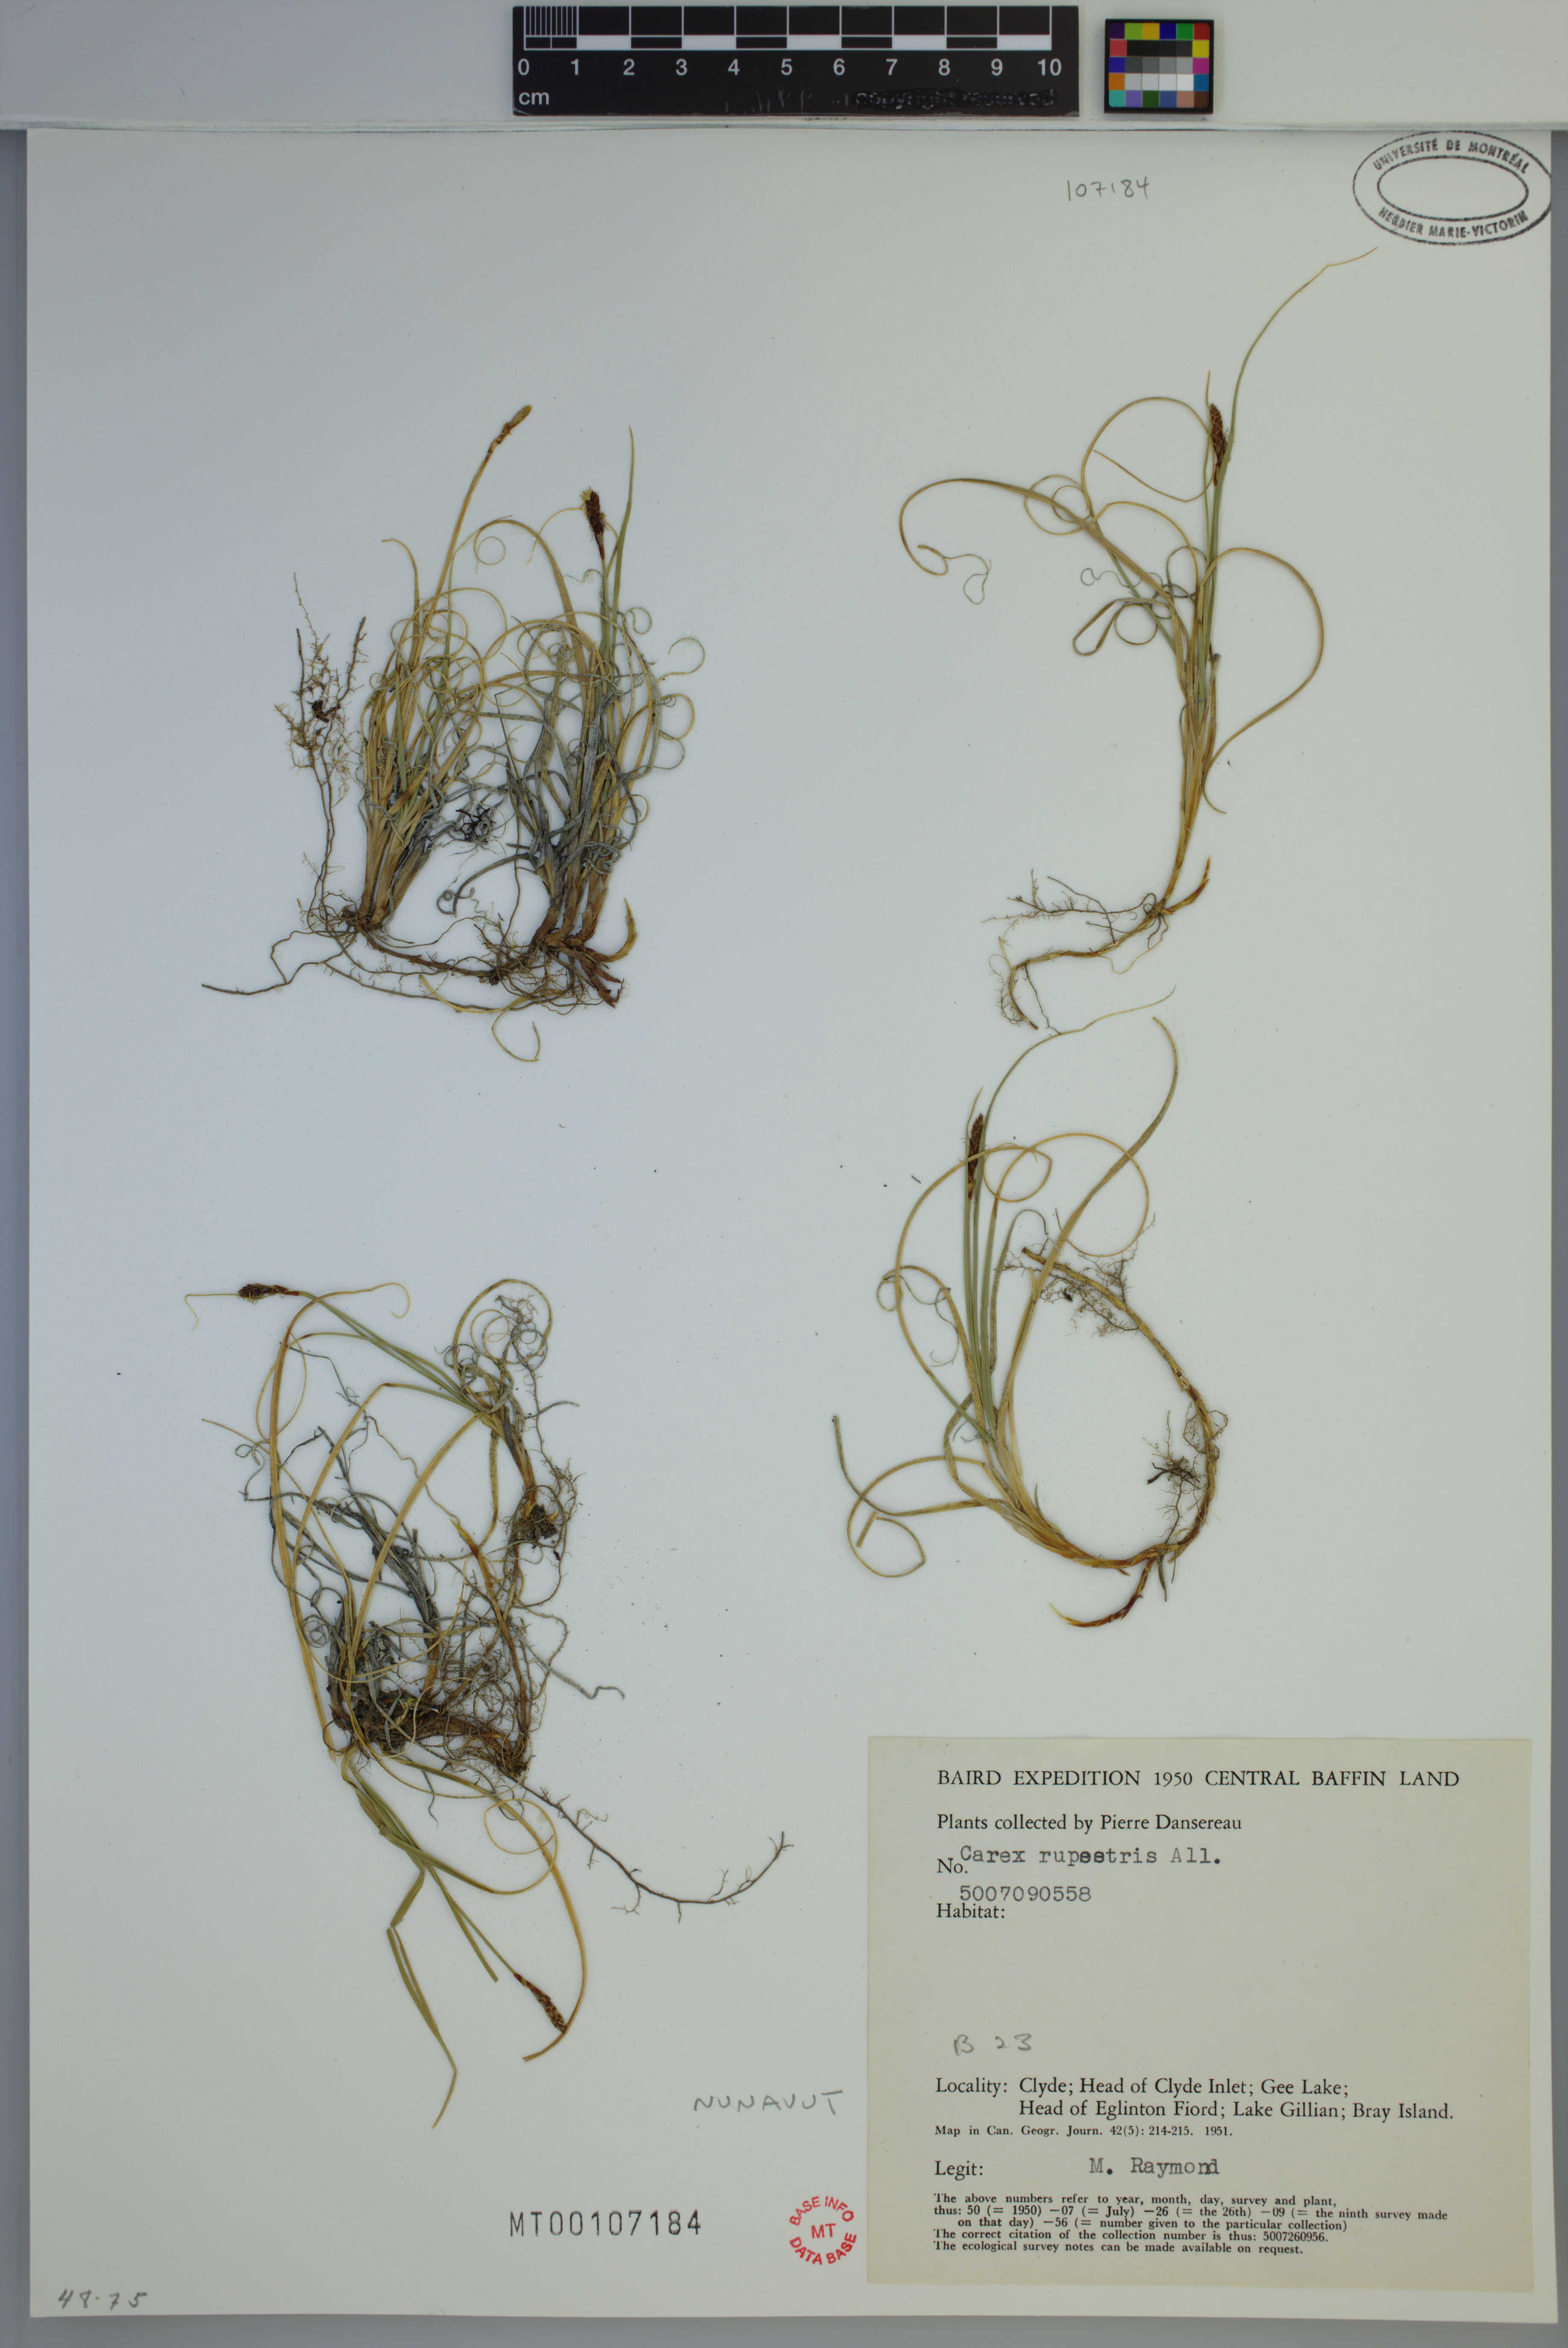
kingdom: Plantae
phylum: Tracheophyta
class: Liliopsida
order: Poales
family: Cyperaceae
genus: Carex
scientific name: Carex rupestris
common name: Rock sedge
